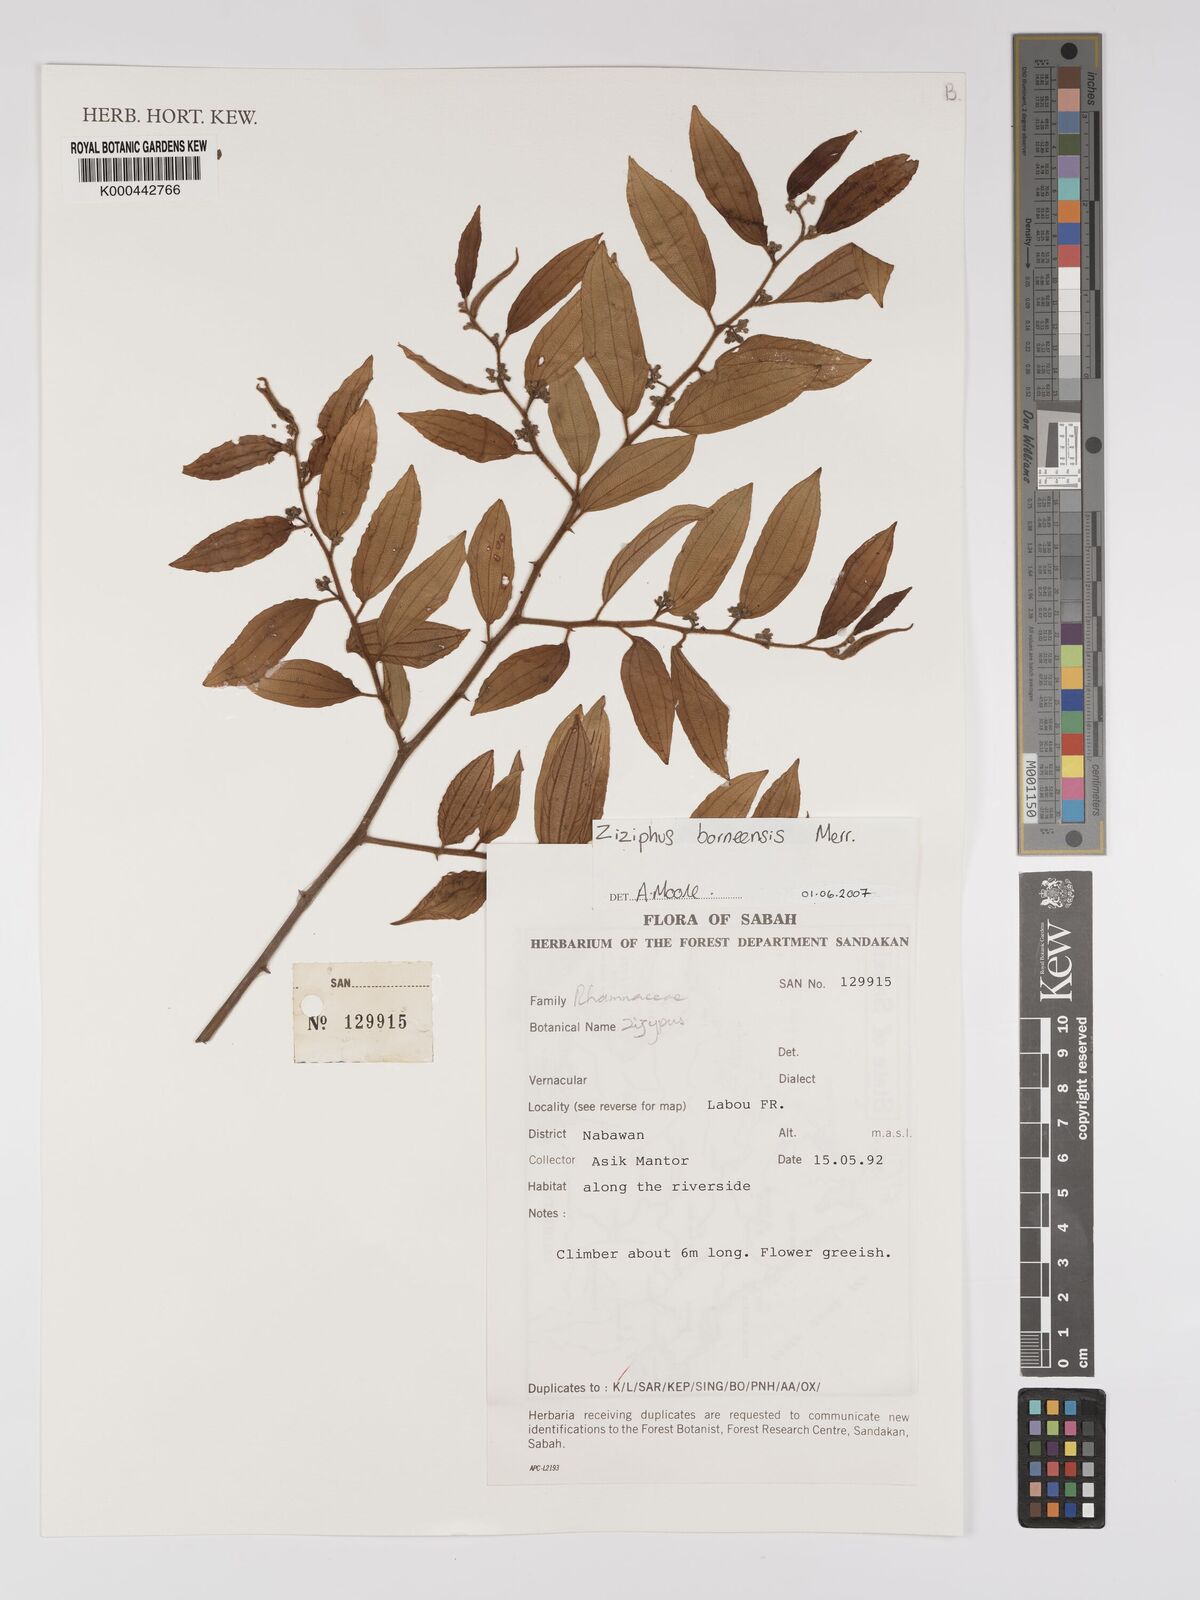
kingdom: Plantae
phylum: Tracheophyta
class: Magnoliopsida
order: Rosales
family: Rhamnaceae
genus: Ziziphus
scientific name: Ziziphus borneensis
